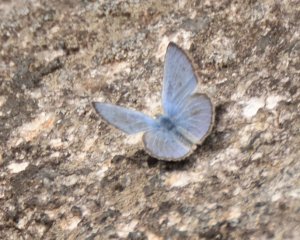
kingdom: Animalia
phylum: Arthropoda
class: Insecta
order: Lepidoptera
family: Lycaenidae
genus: Glaucopsyche
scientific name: Glaucopsyche lygdamus
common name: Silvery Blue
